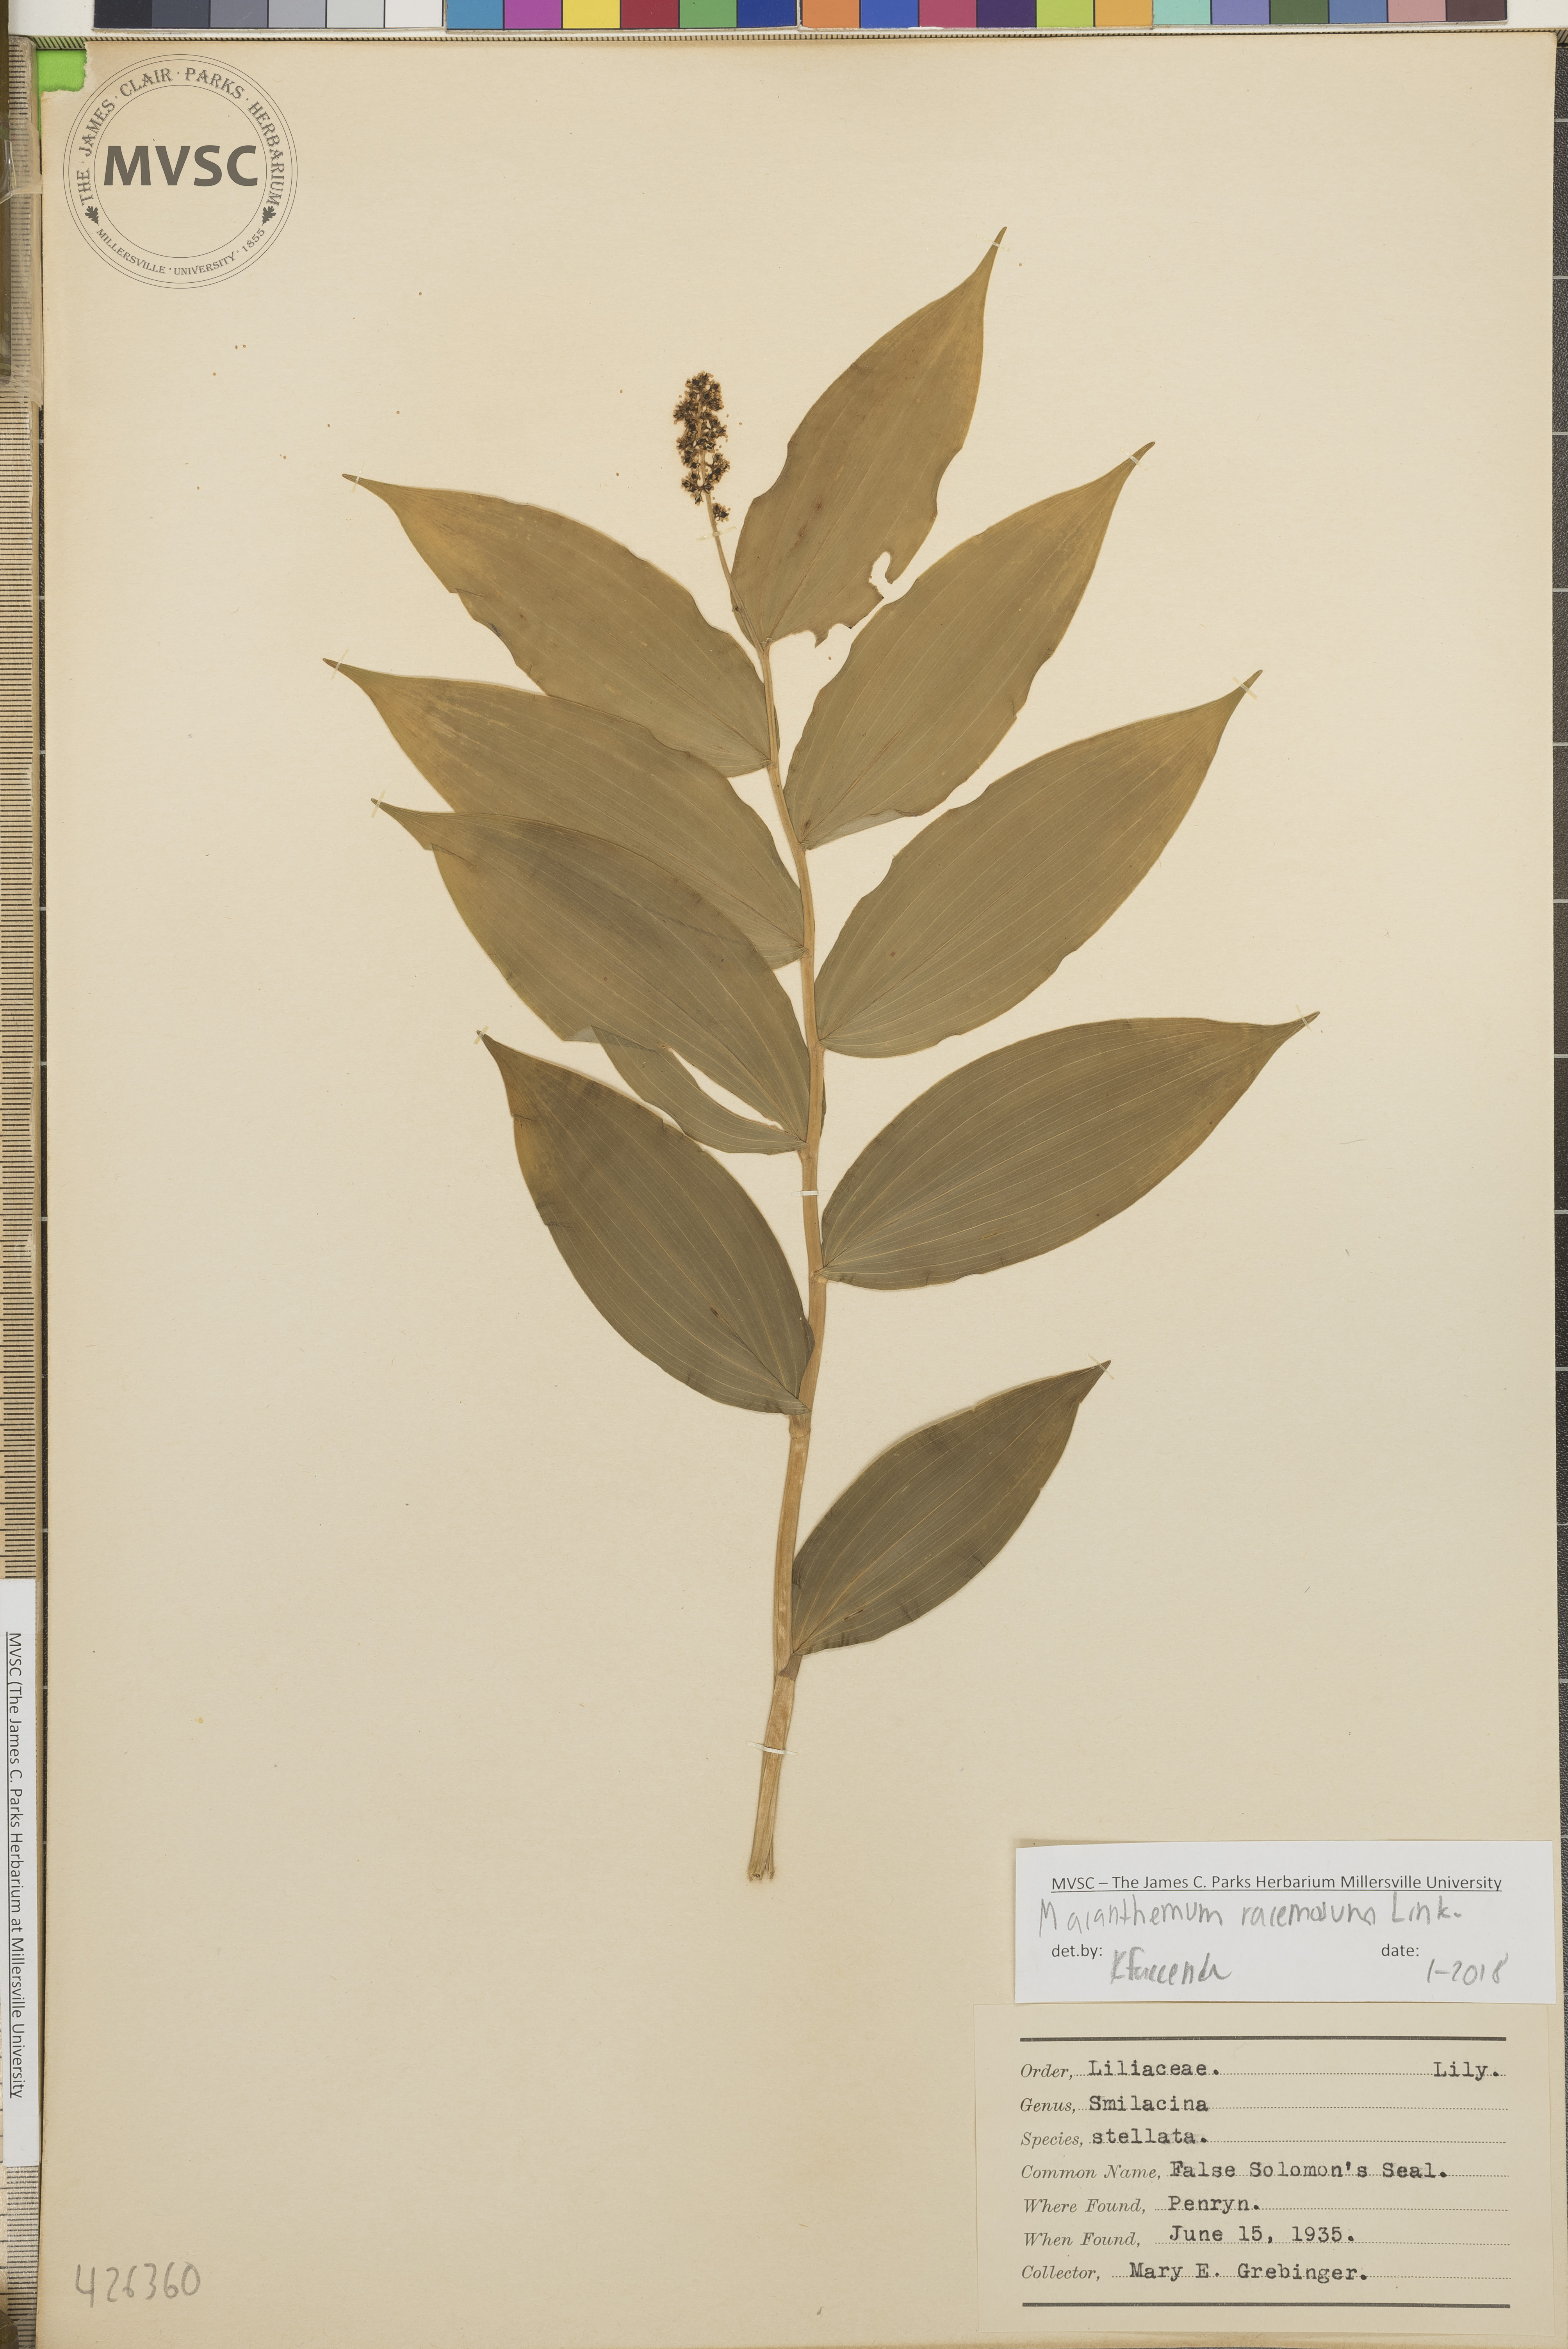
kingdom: Plantae
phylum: Tracheophyta
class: Liliopsida
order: Asparagales
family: Asparagaceae
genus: Maianthemum
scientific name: Maianthemum racemosum
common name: False Solomon's seal
